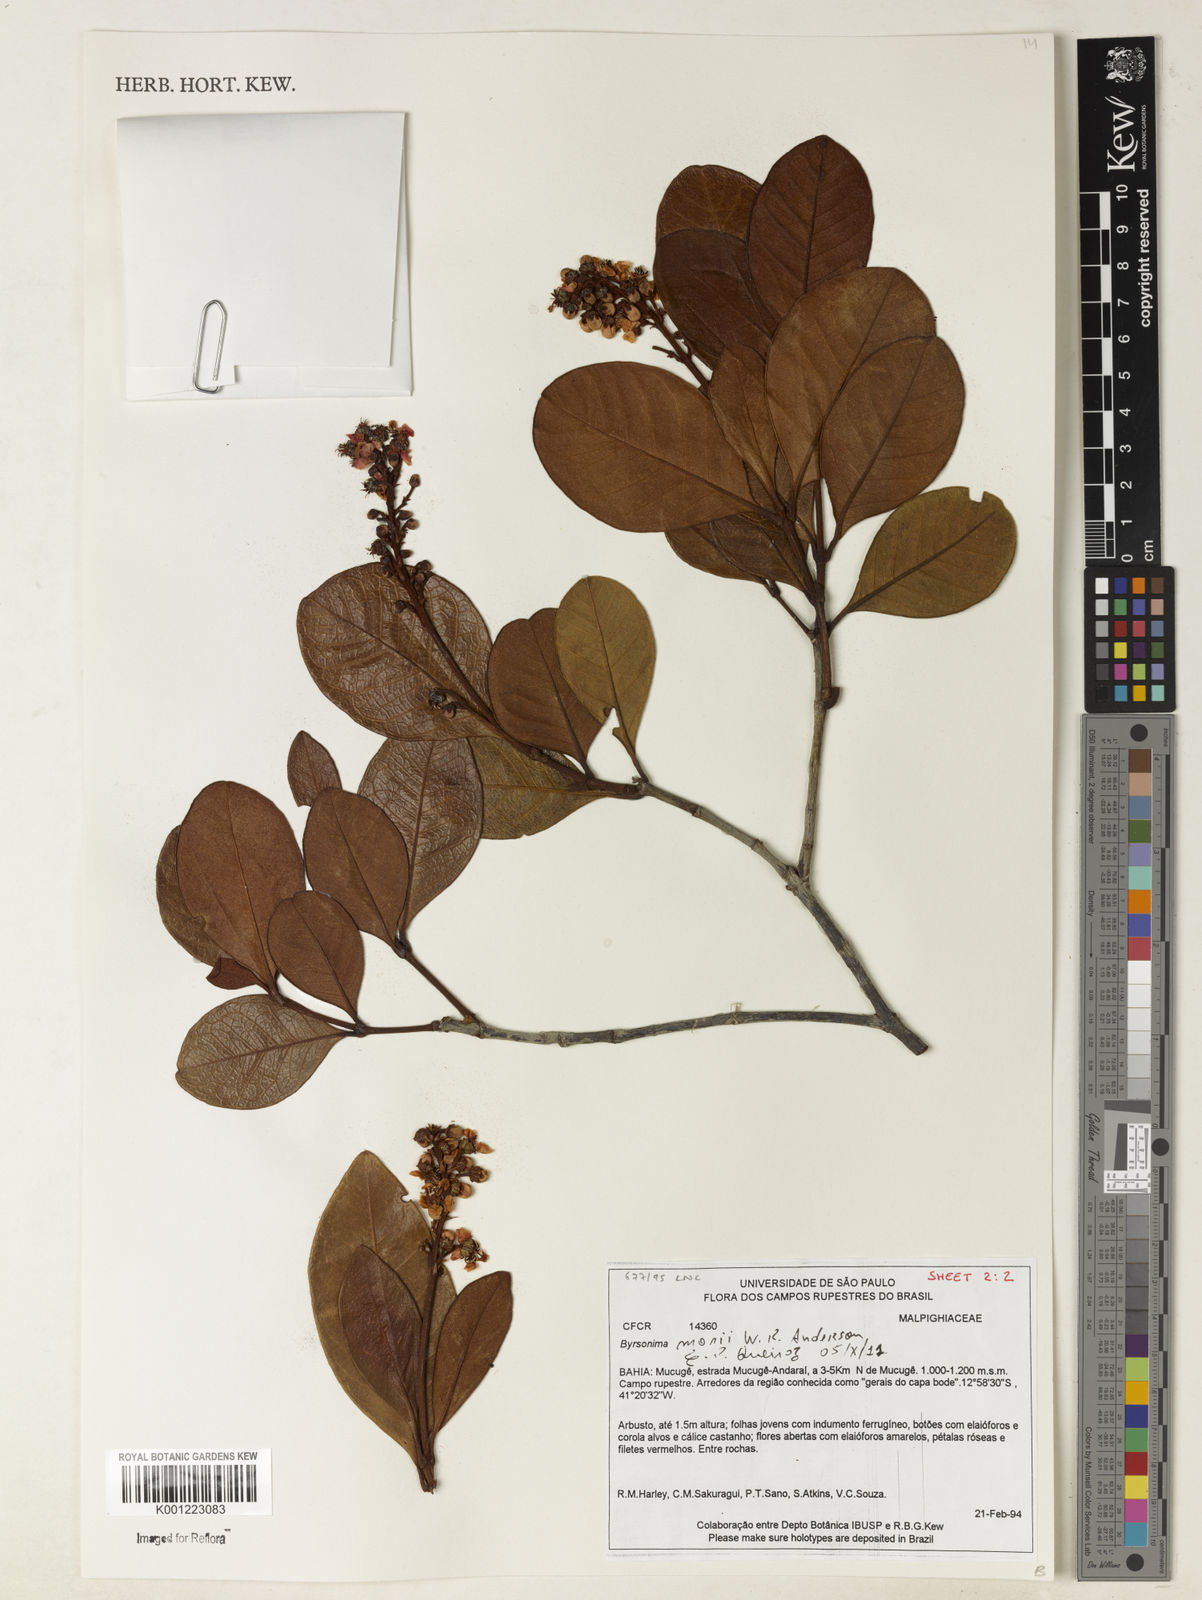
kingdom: Plantae
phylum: Tracheophyta
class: Magnoliopsida
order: Malpighiales
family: Malpighiaceae
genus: Byrsonima
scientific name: Byrsonima morii
